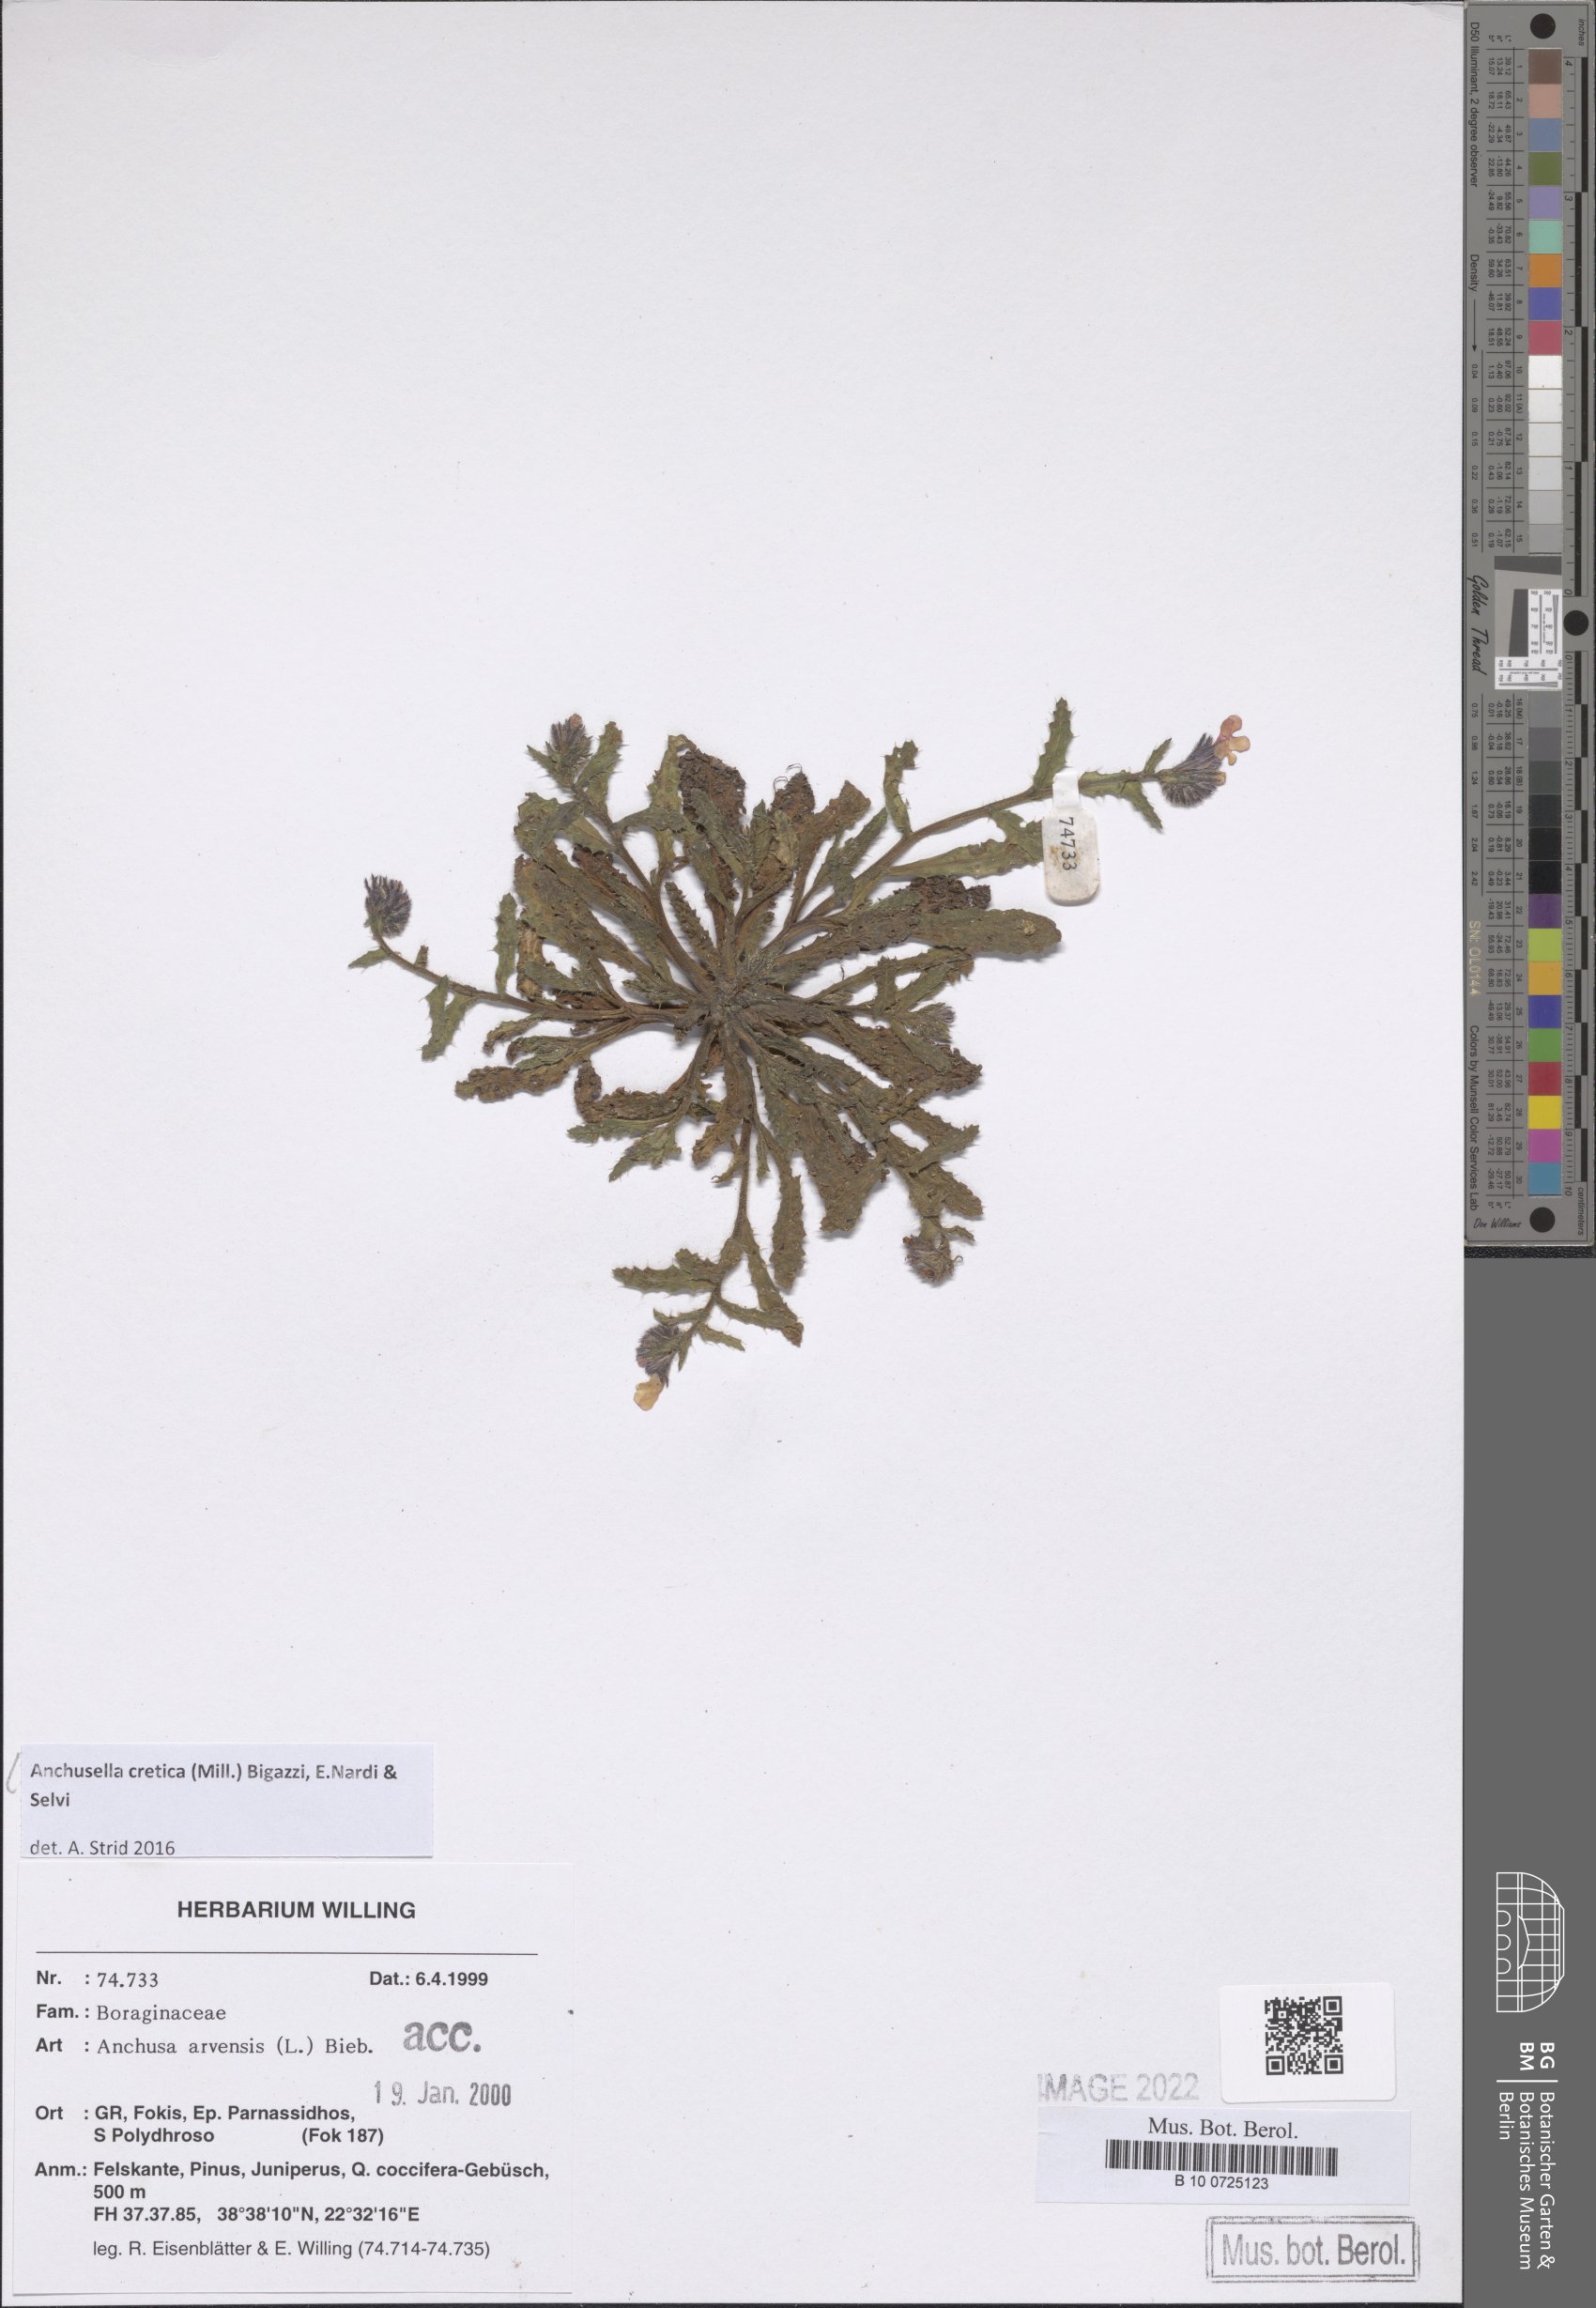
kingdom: Plantae
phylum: Tracheophyta
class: Magnoliopsida
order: Boraginales
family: Boraginaceae
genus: Anchusella
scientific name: Anchusella cretica
